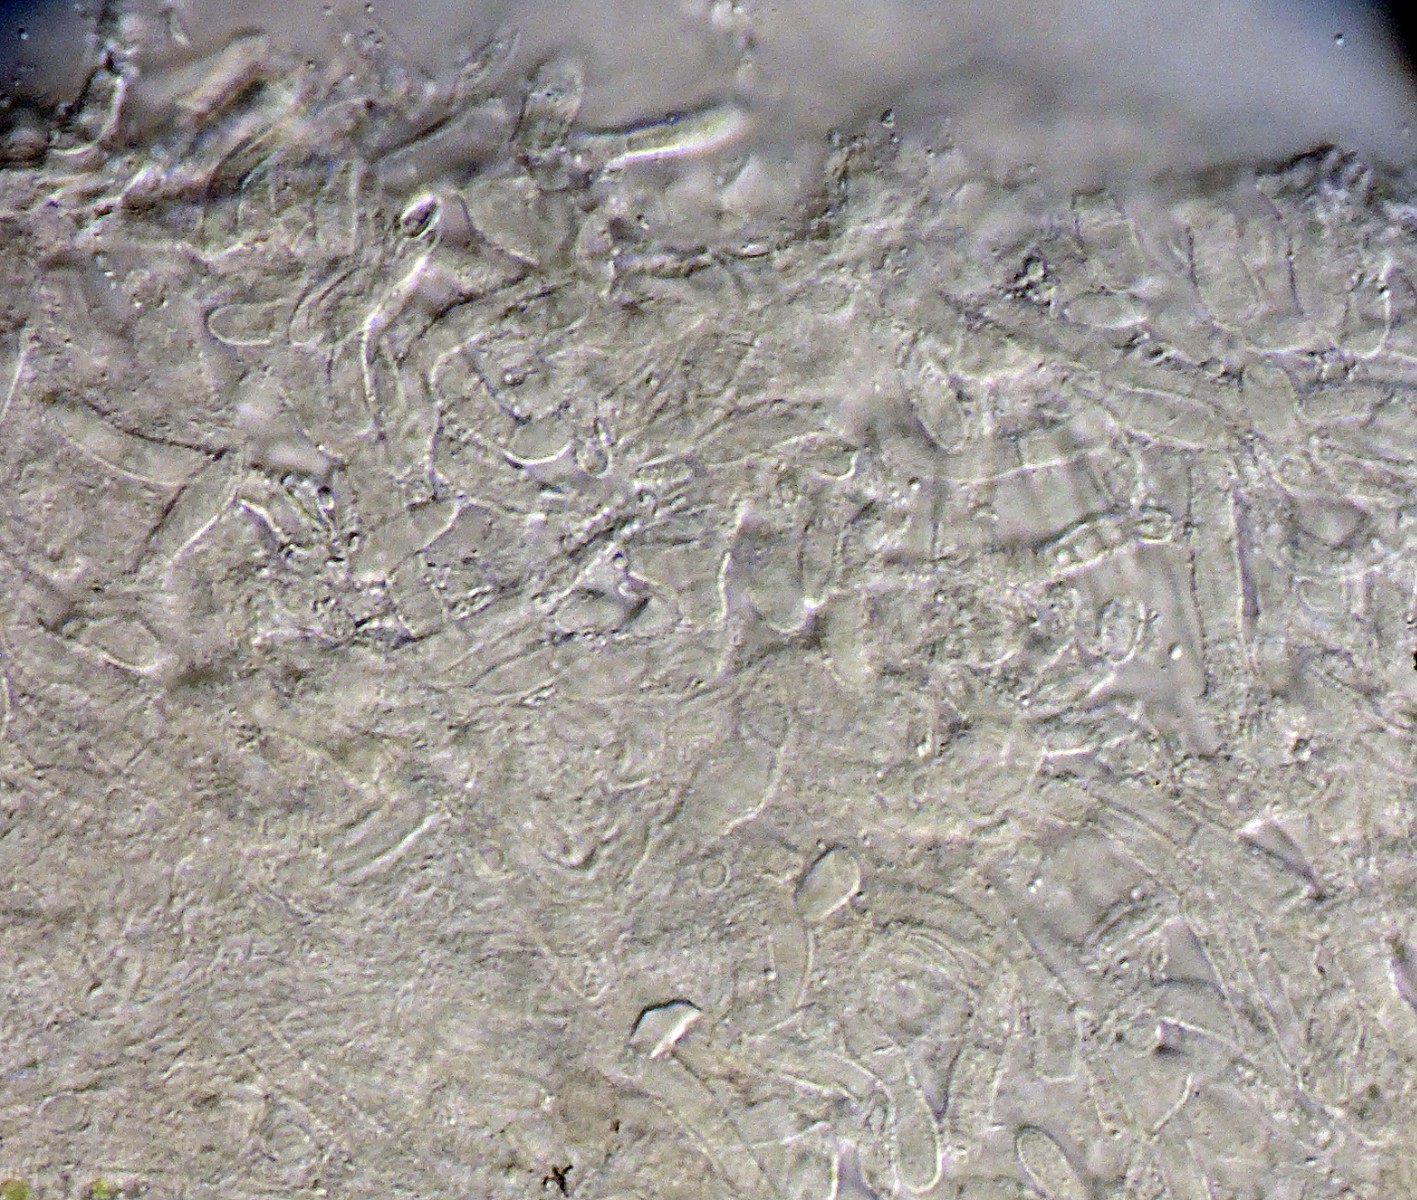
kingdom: Fungi
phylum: Ascomycota
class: Leotiomycetes
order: Helotiales
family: Lachnaceae
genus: Lachnellula
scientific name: Lachnellula pseudofarinacea
